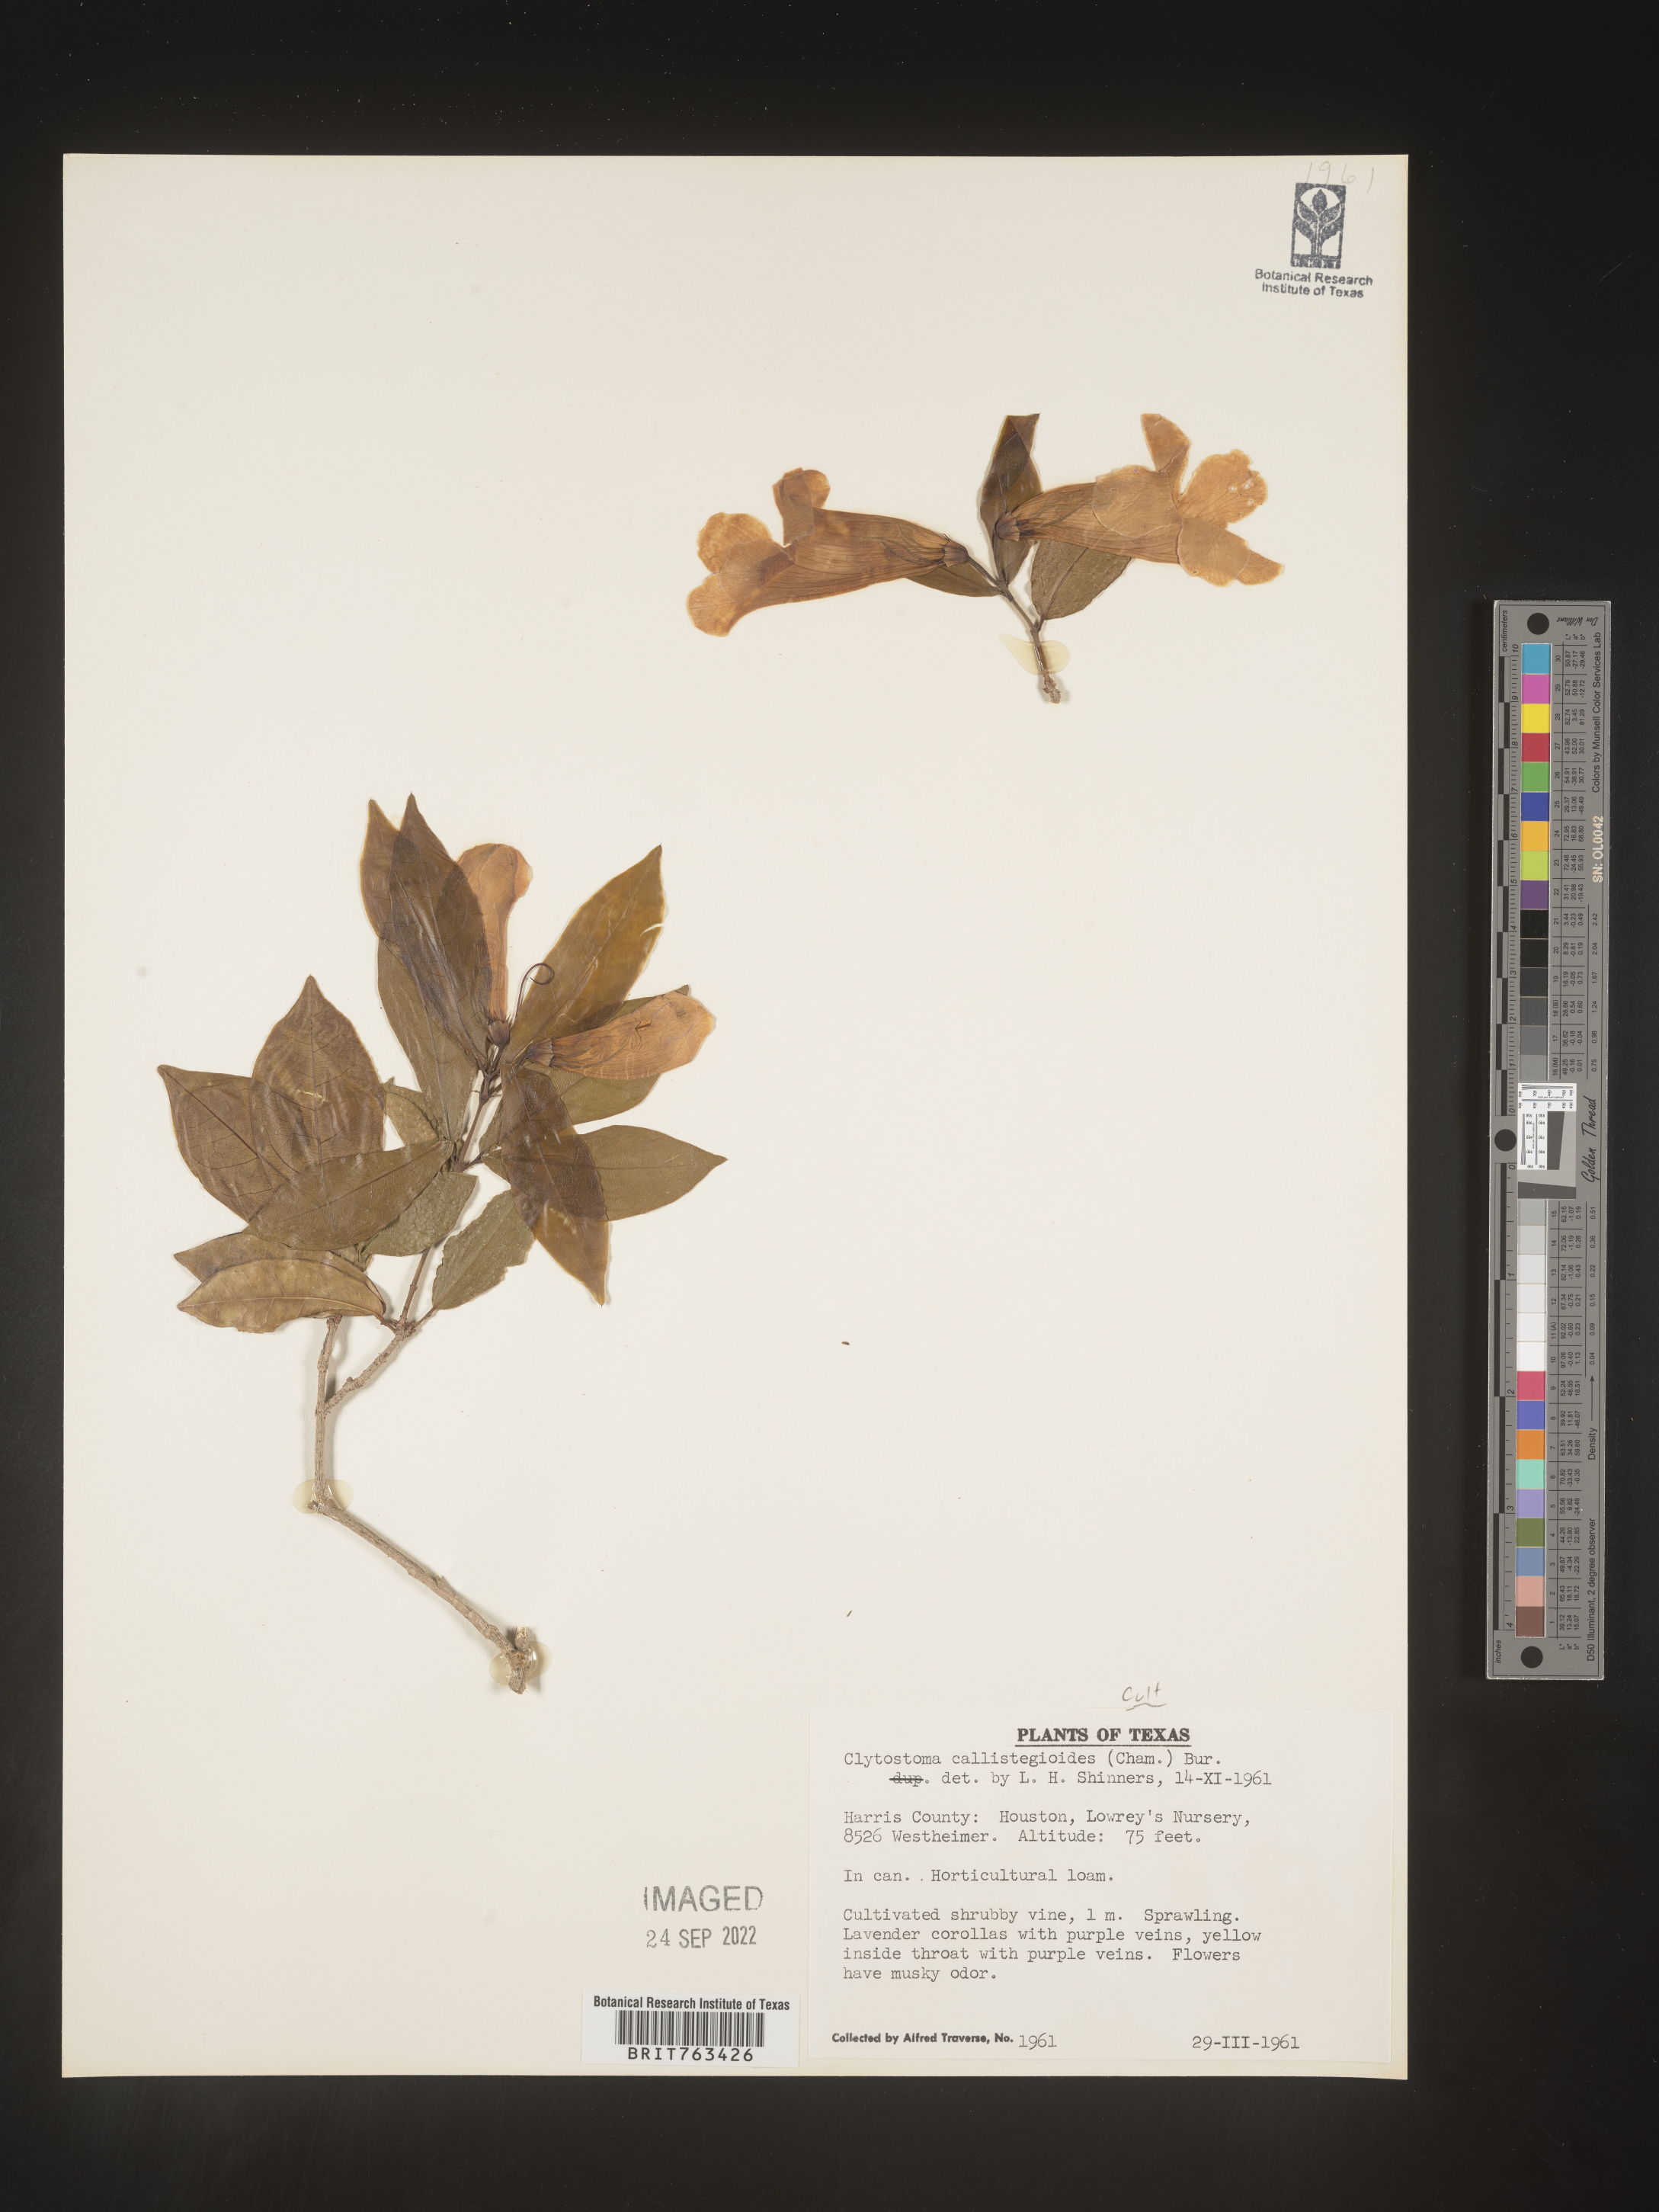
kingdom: Plantae
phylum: Tracheophyta
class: Magnoliopsida
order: Lamiales
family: Bignoniaceae
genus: Bignonia
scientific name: Bignonia
